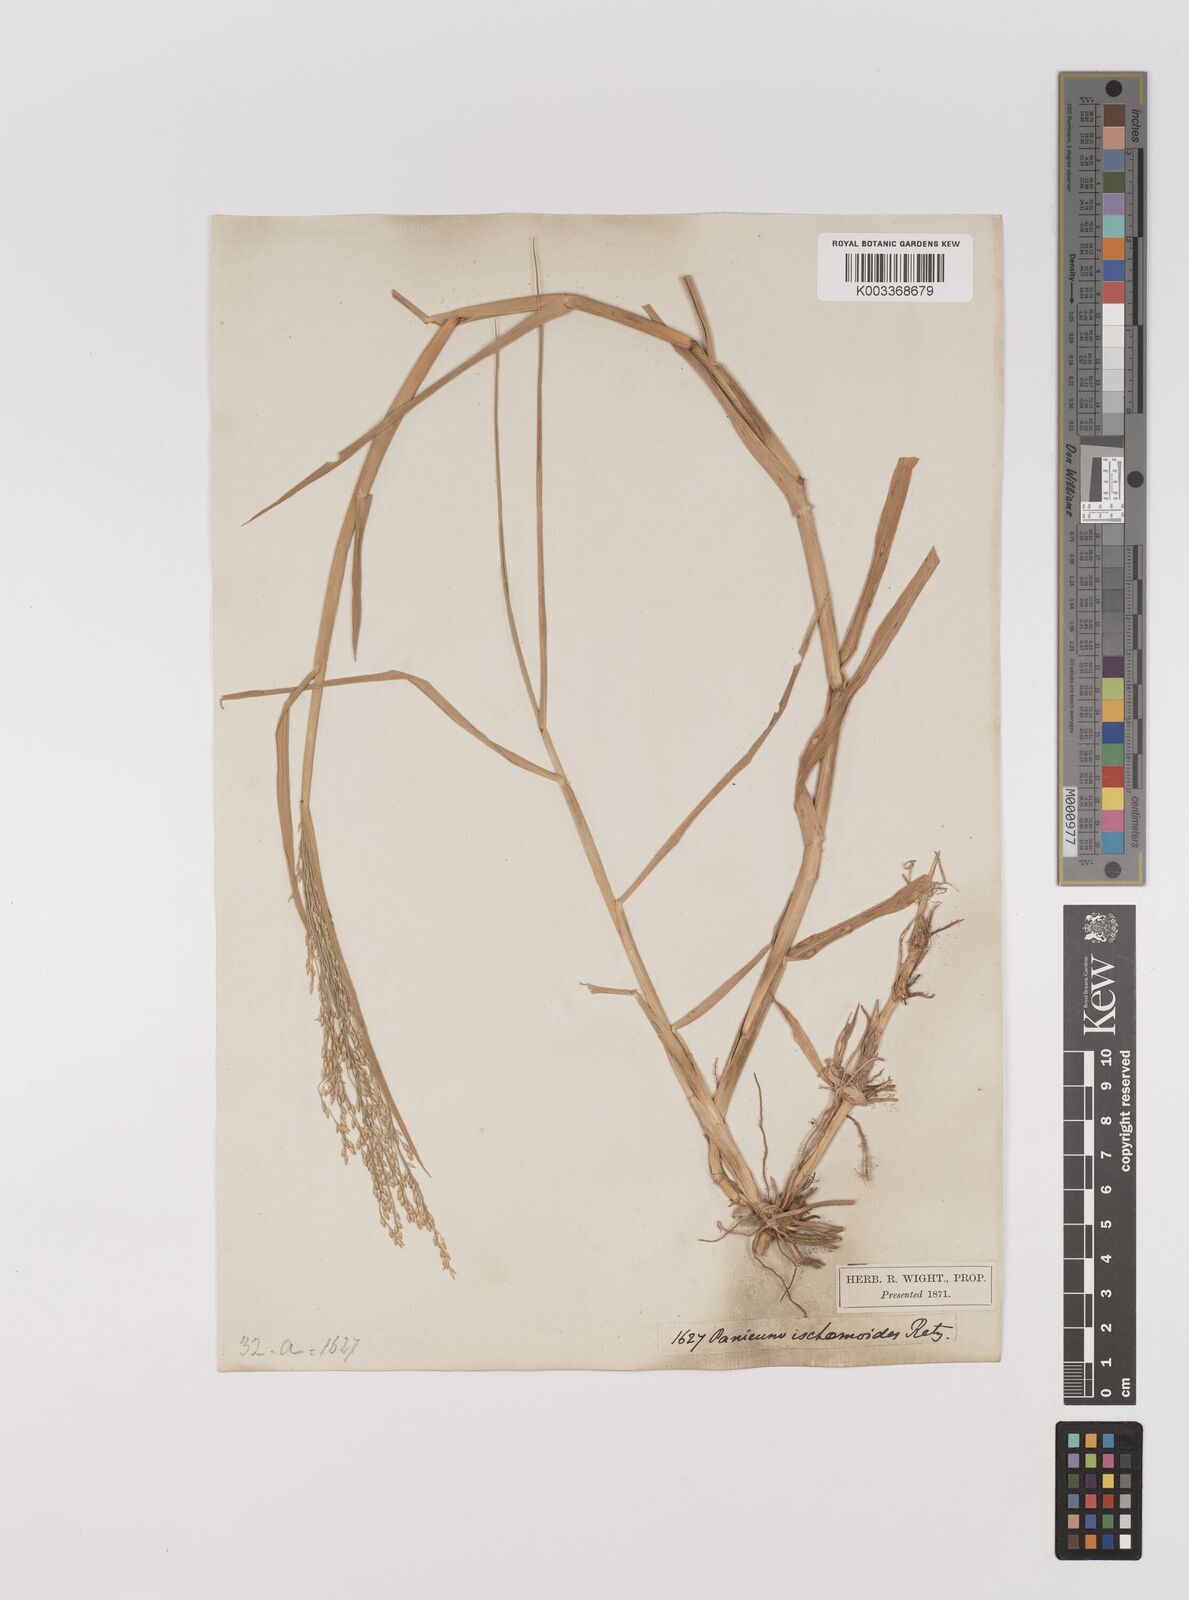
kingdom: Plantae
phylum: Tracheophyta
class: Liliopsida
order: Poales
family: Poaceae
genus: Panicum
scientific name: Panicum repens
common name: Torpedo grass
